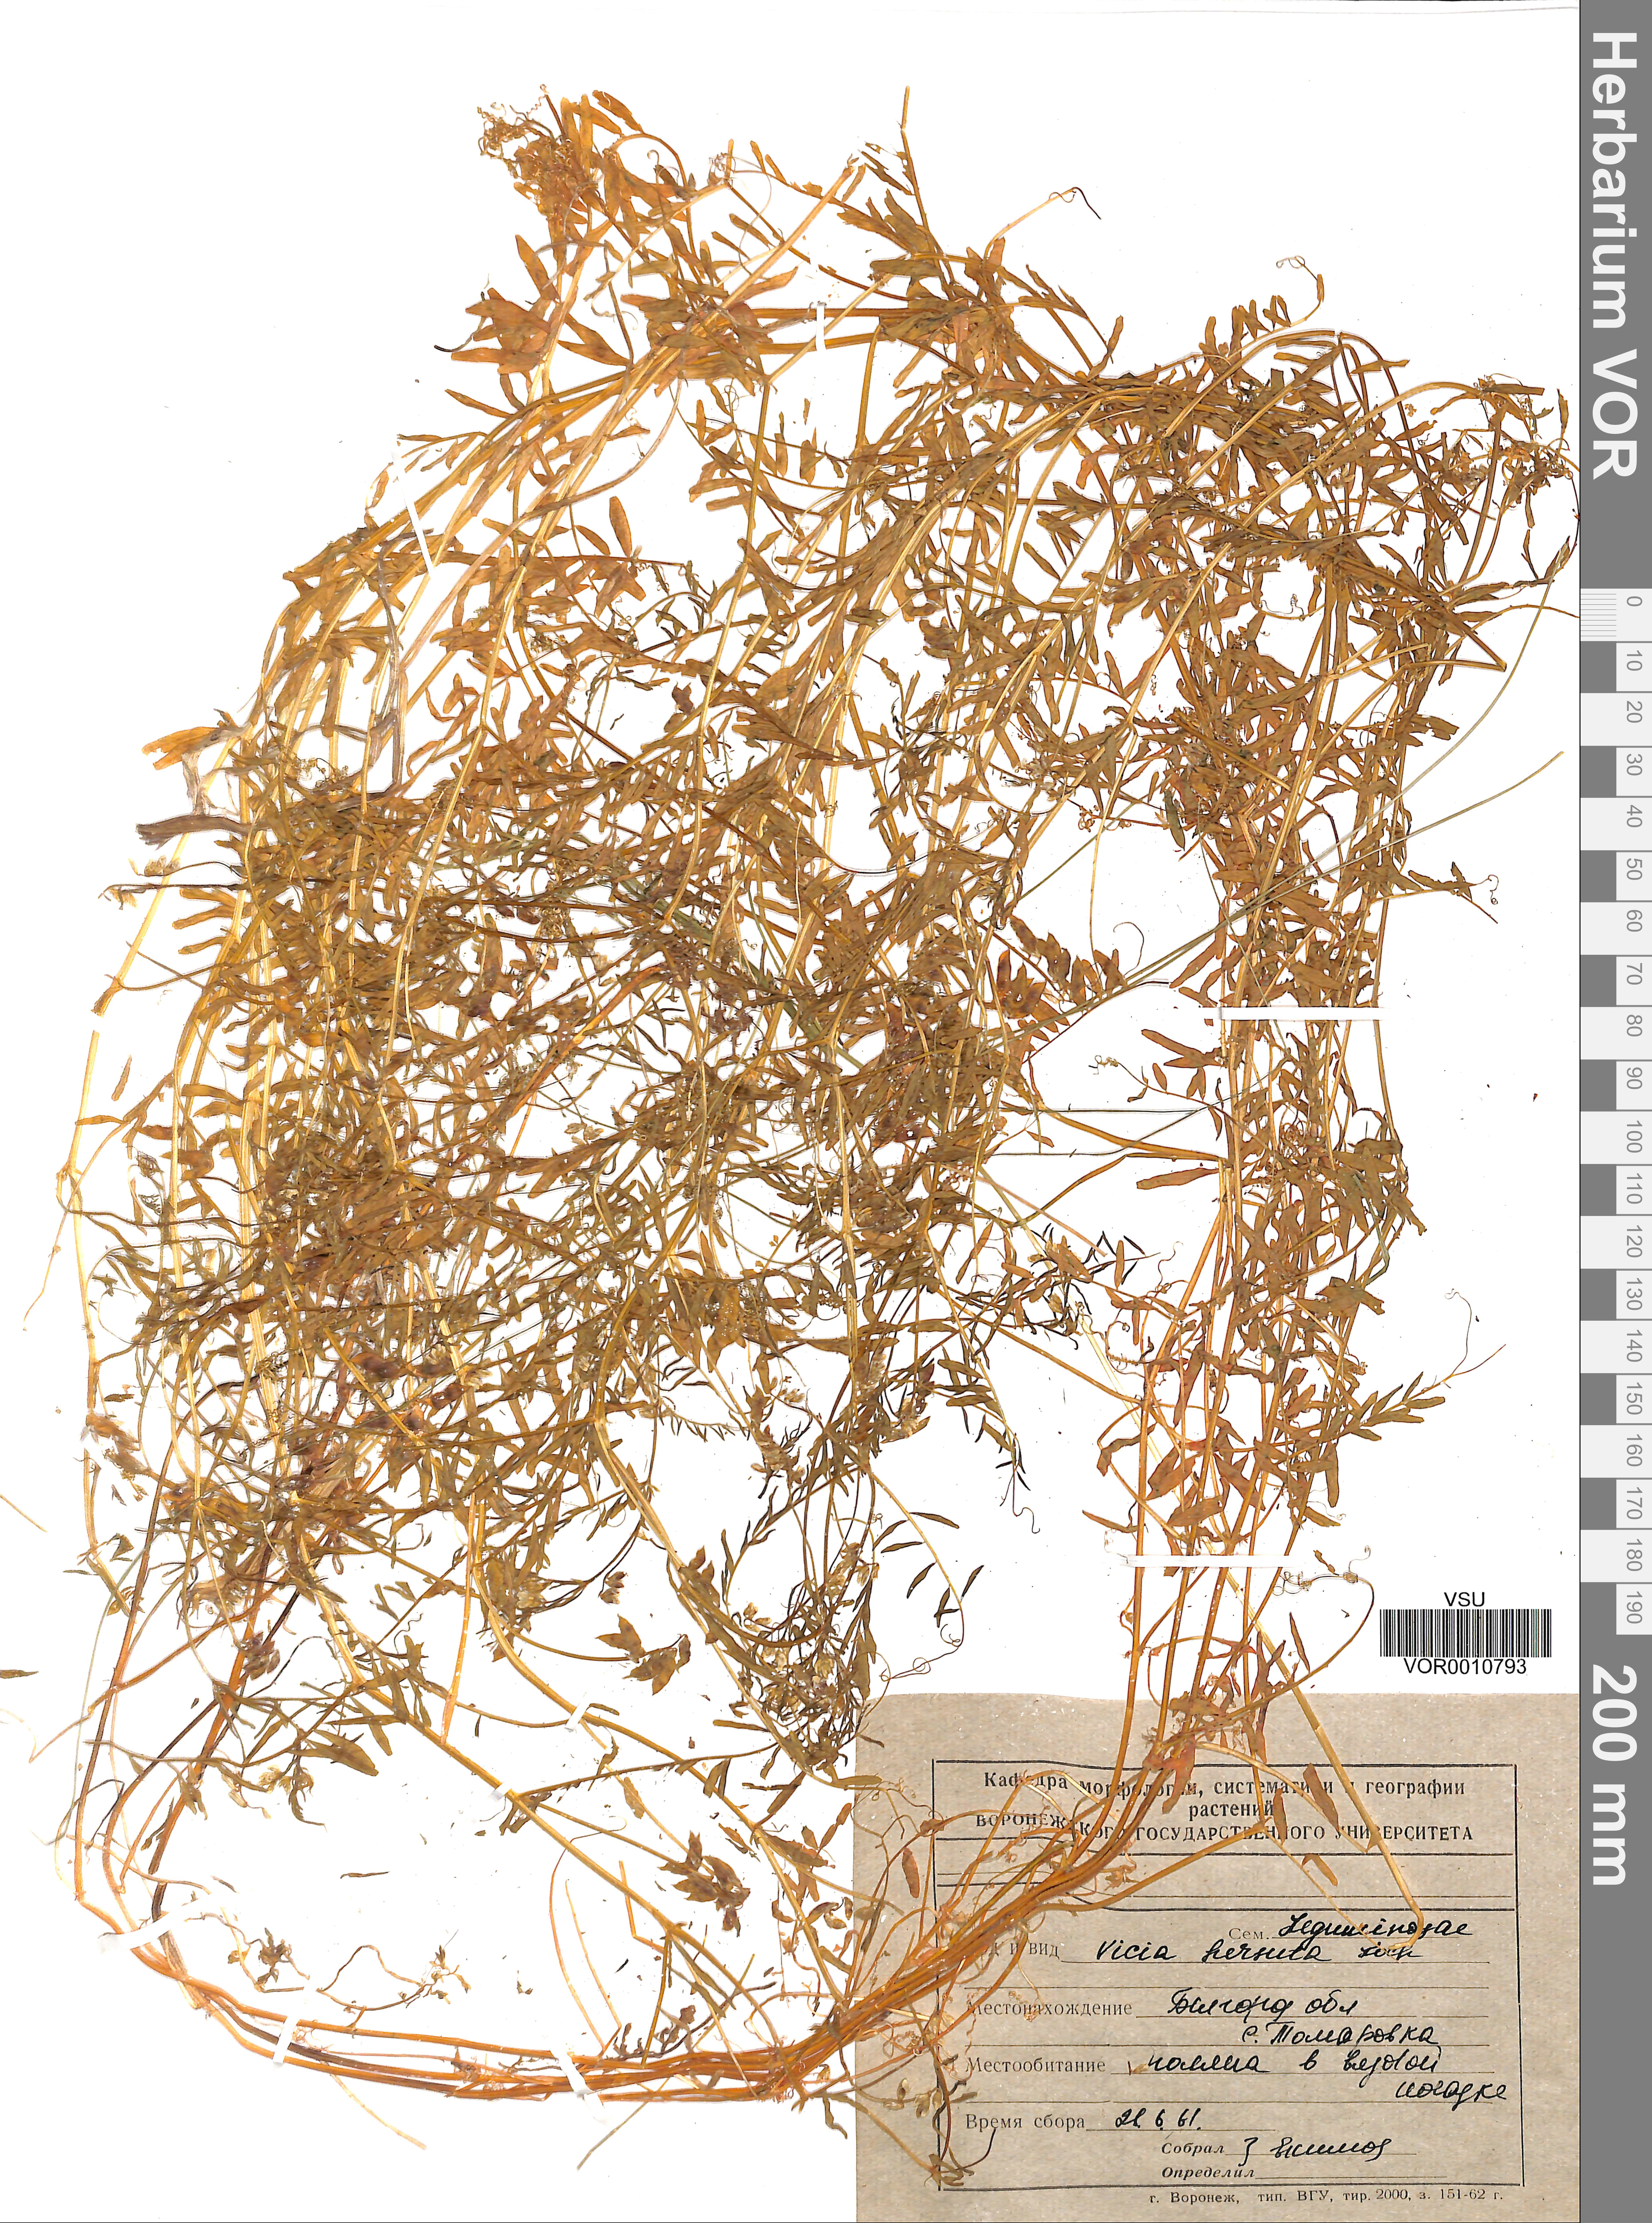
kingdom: Plantae
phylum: Tracheophyta
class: Magnoliopsida
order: Fabales
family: Fabaceae
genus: Vicia
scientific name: Vicia hirsuta
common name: Tiny vetch
